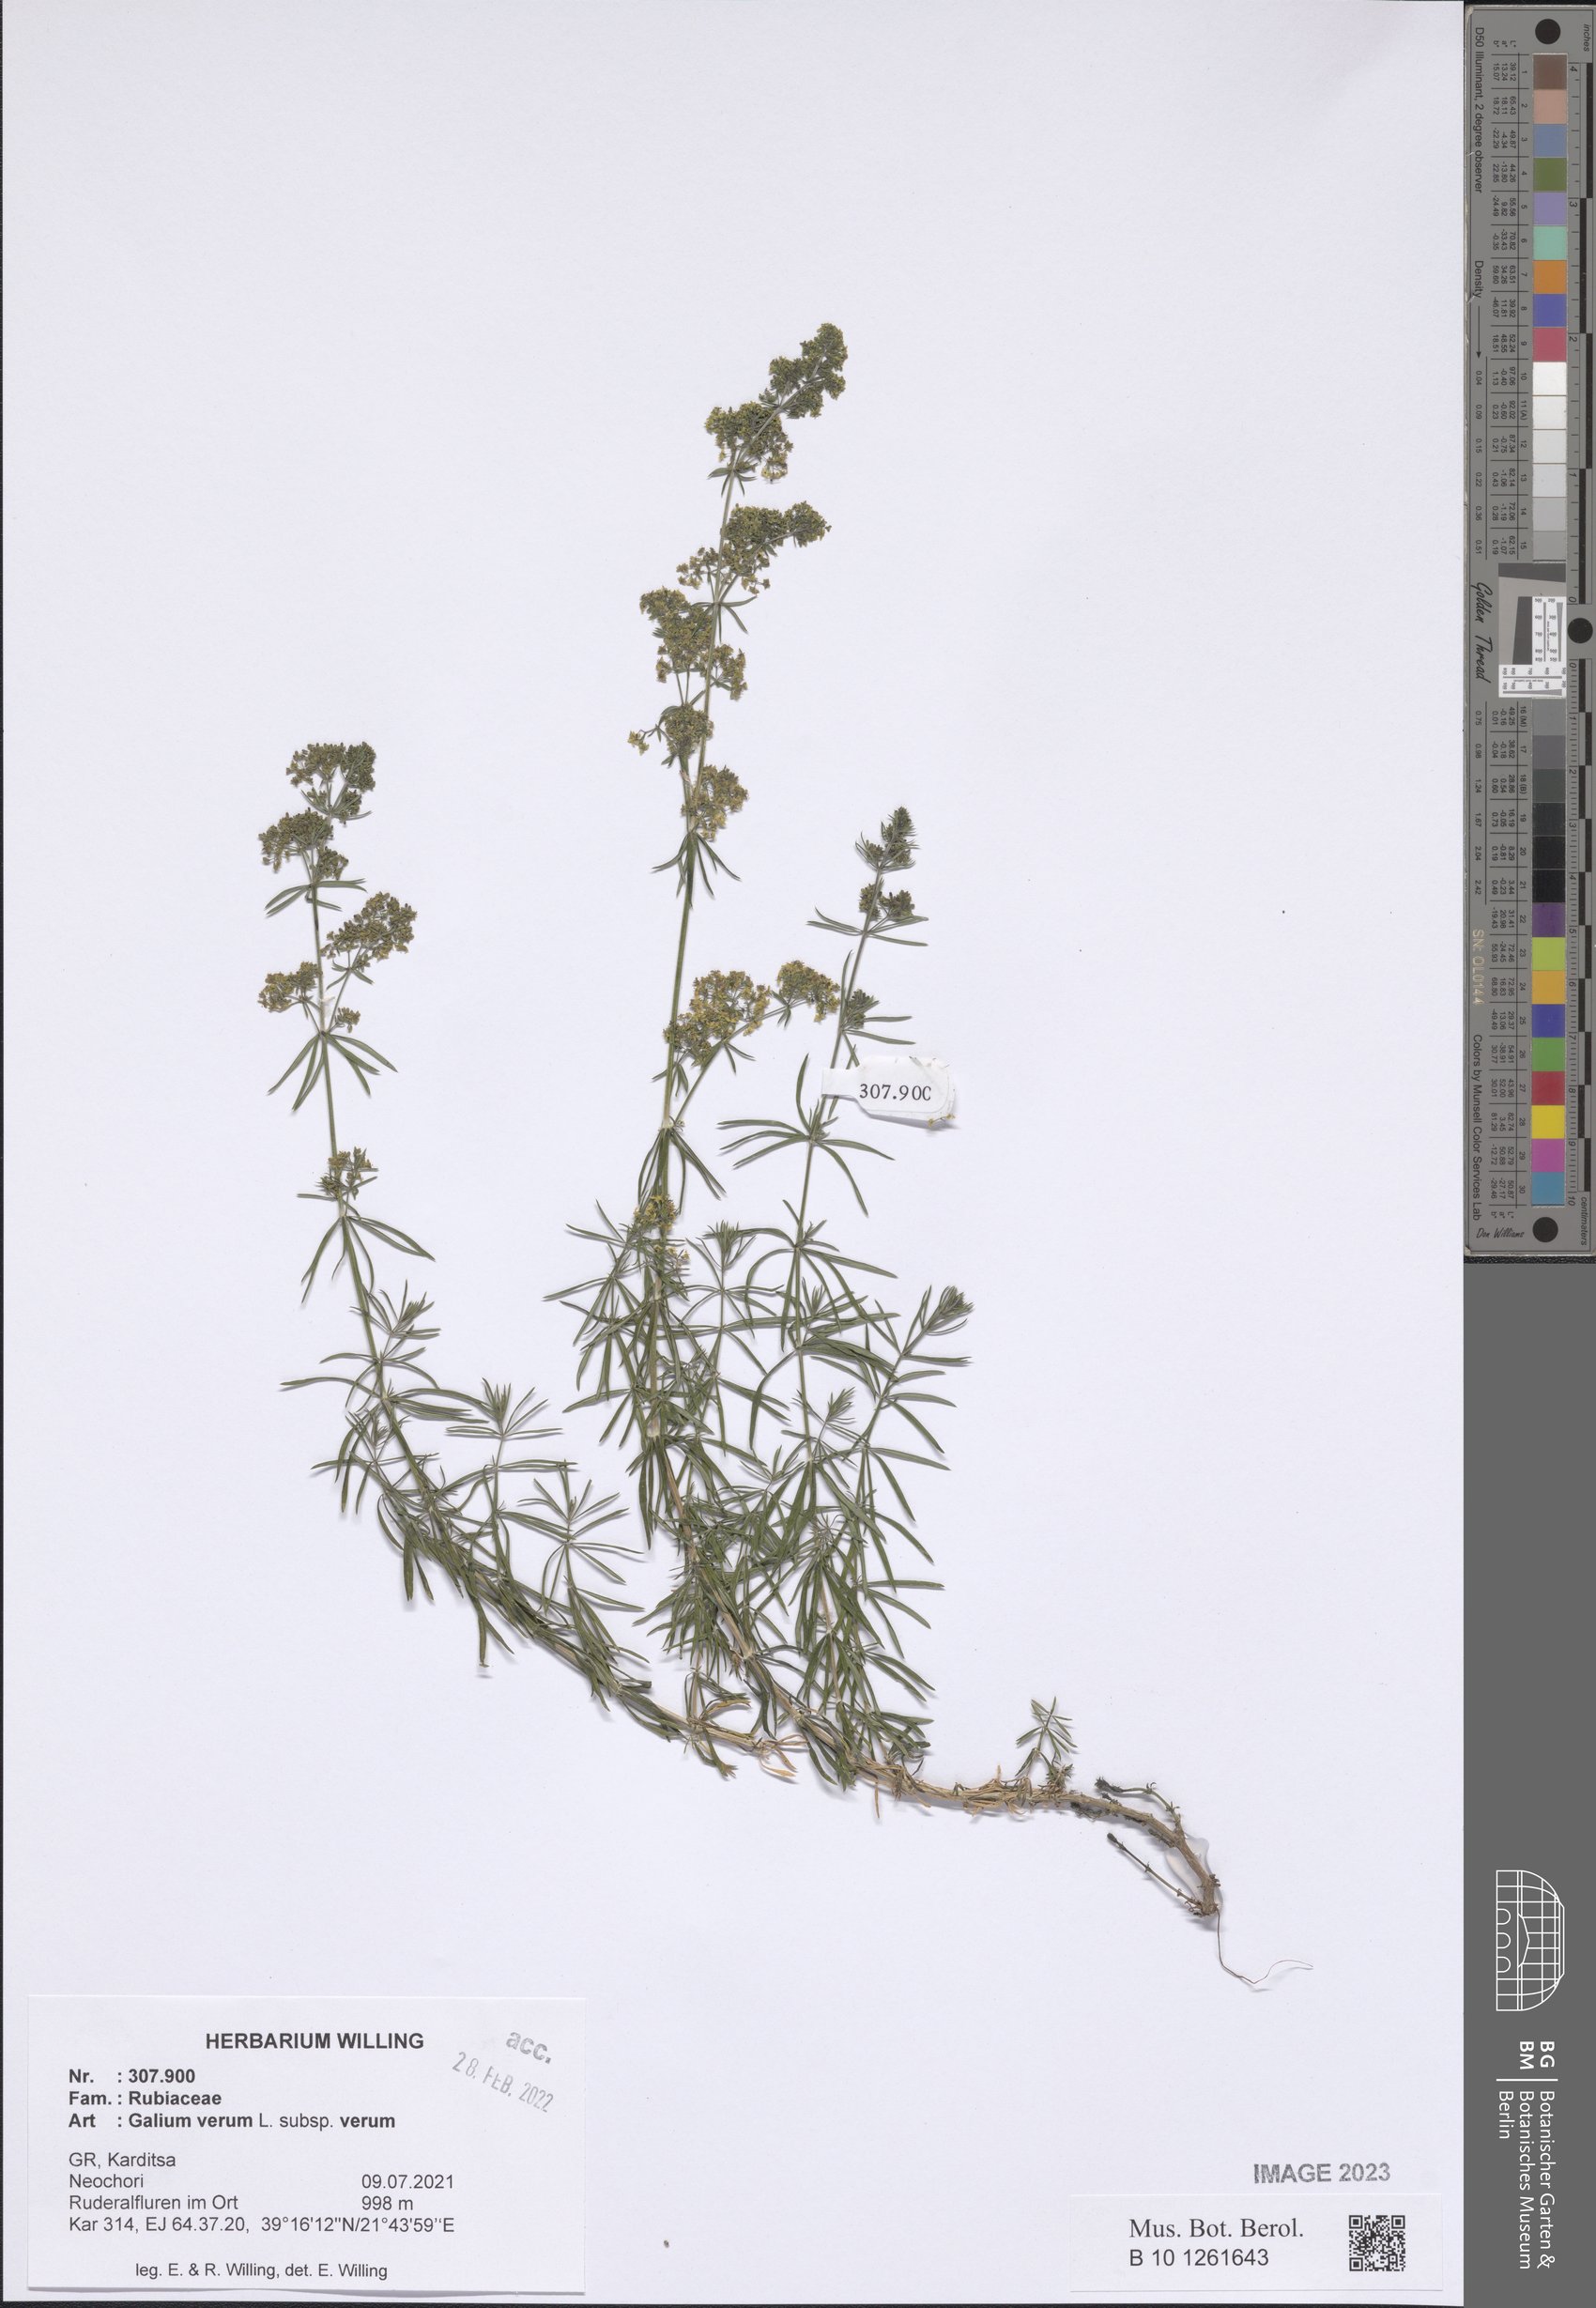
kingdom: Plantae
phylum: Tracheophyta
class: Magnoliopsida
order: Gentianales
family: Rubiaceae
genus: Galium
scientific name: Galium verum
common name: Lady's bedstraw
